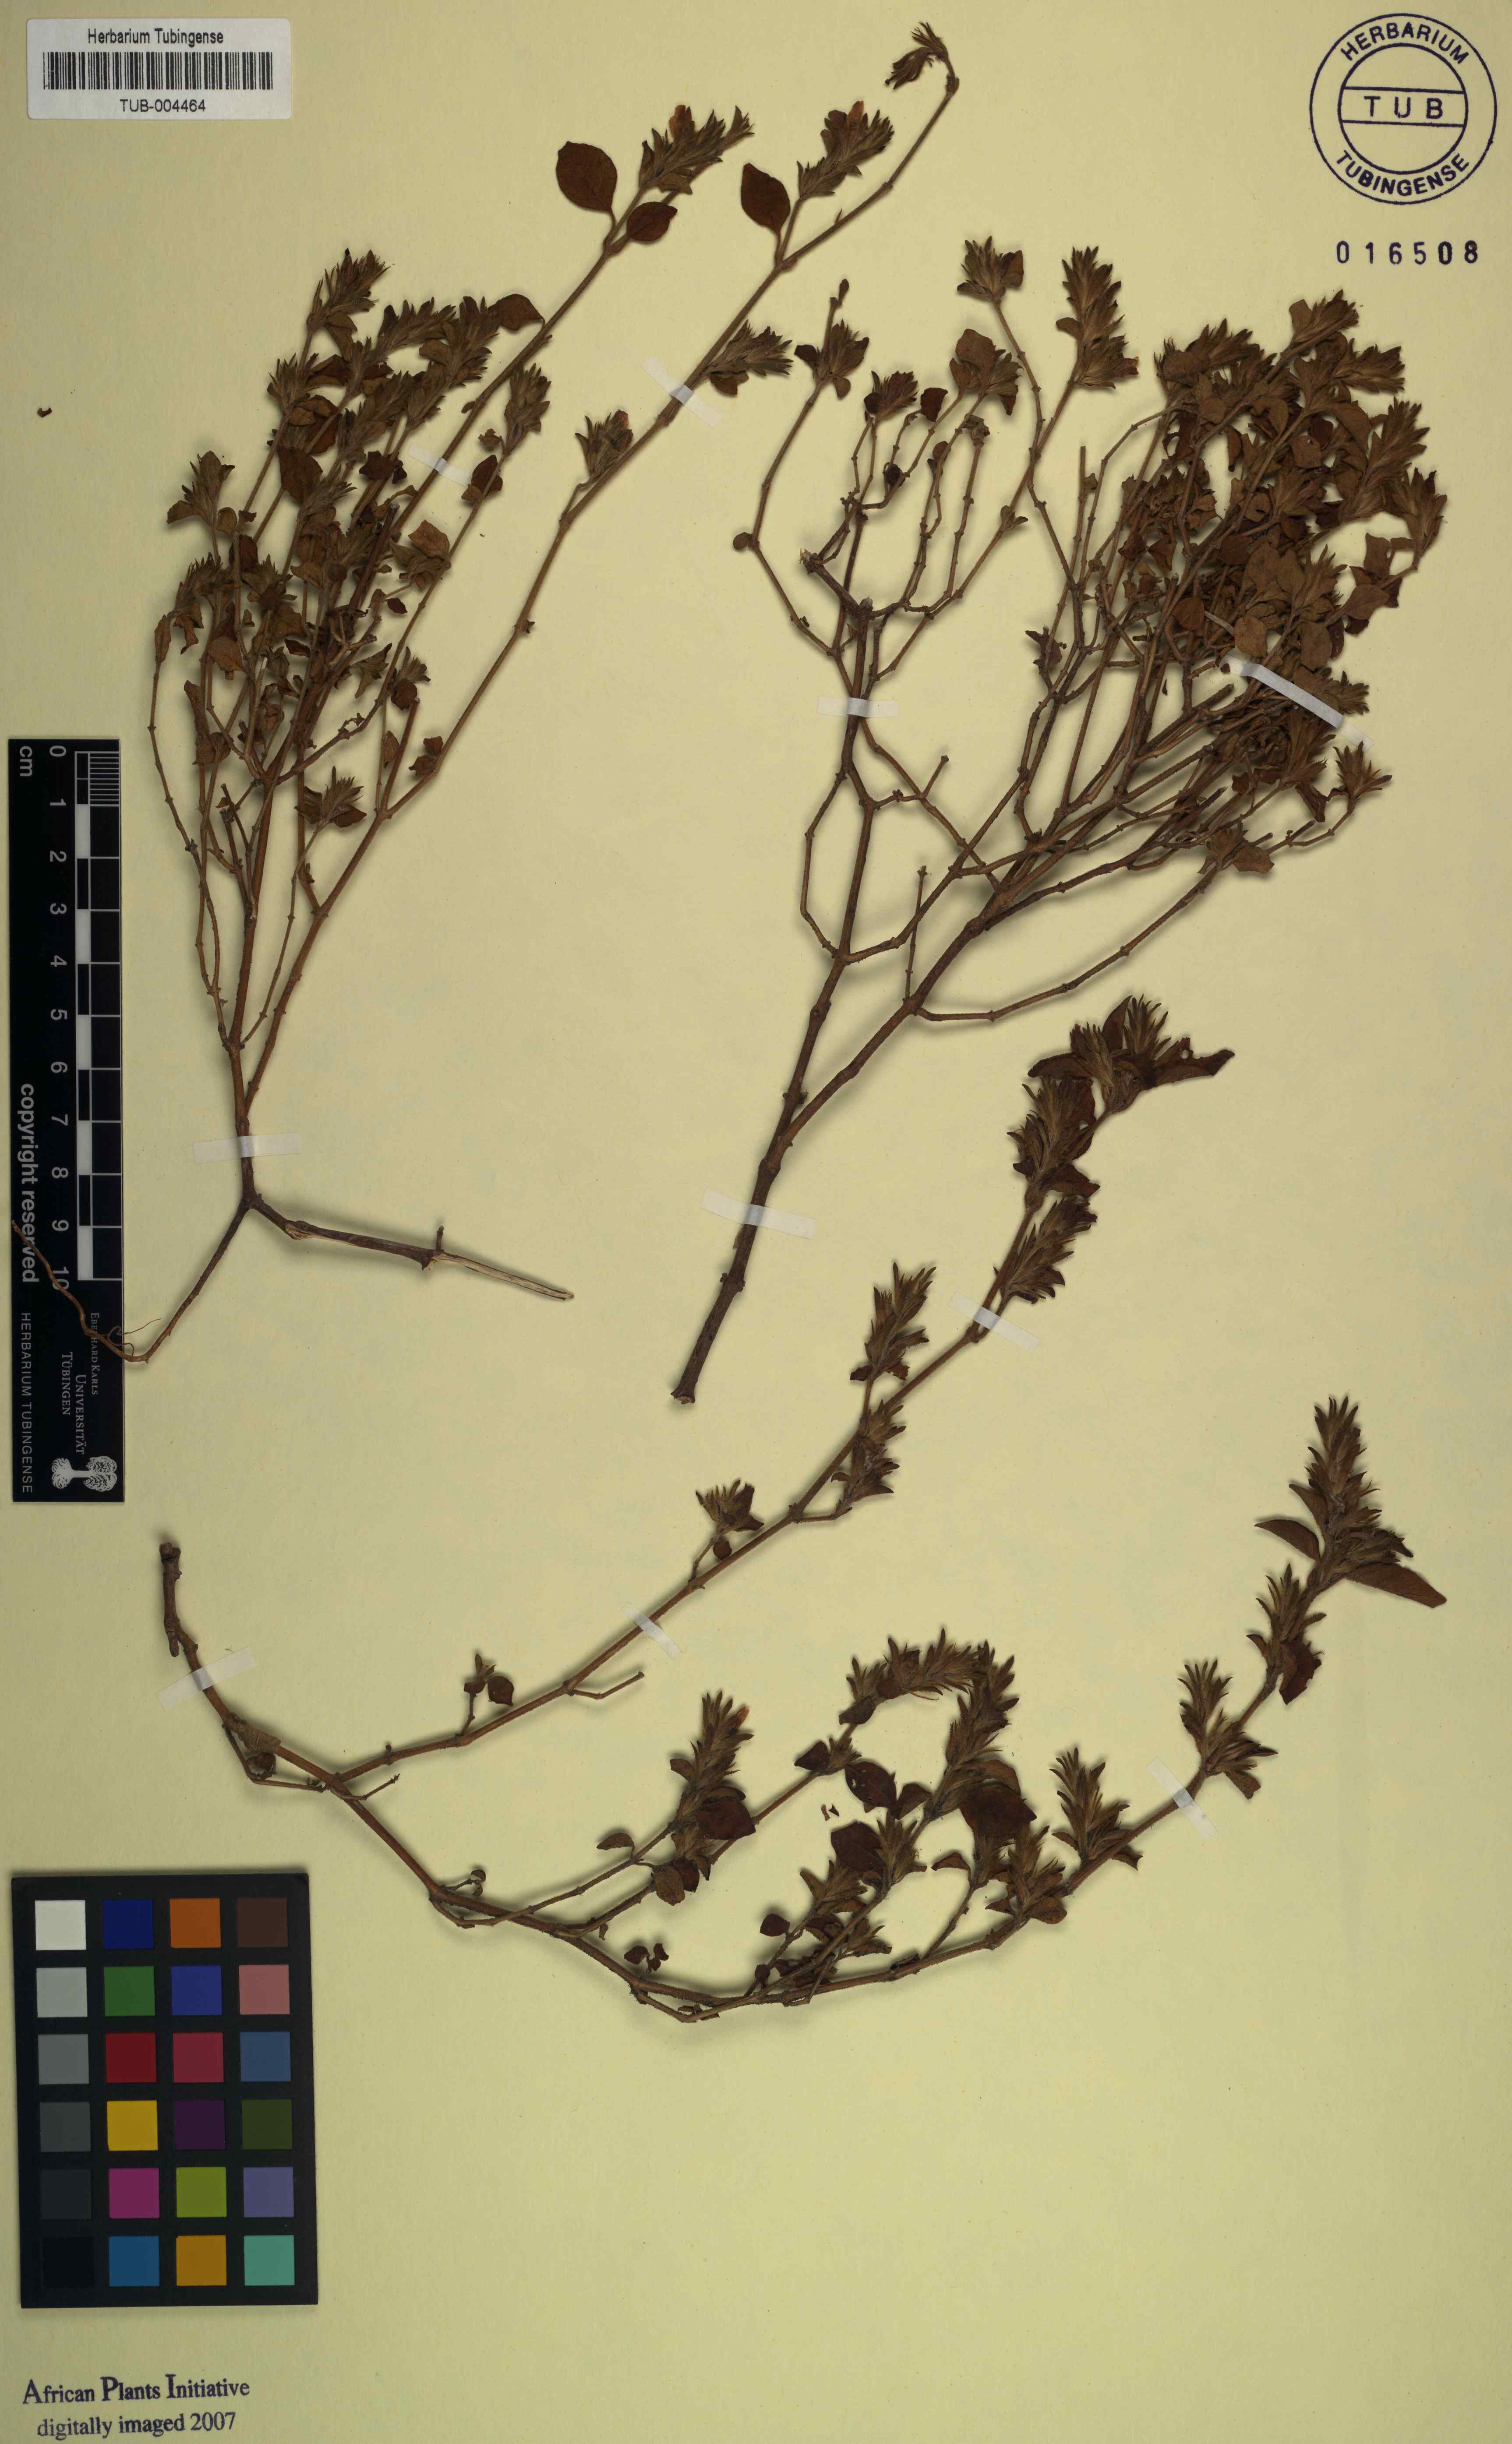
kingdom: Plantae
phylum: Tracheophyta
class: Magnoliopsida
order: Lamiales
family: Acanthaceae
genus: Justicia
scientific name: Justicia rubicunda
